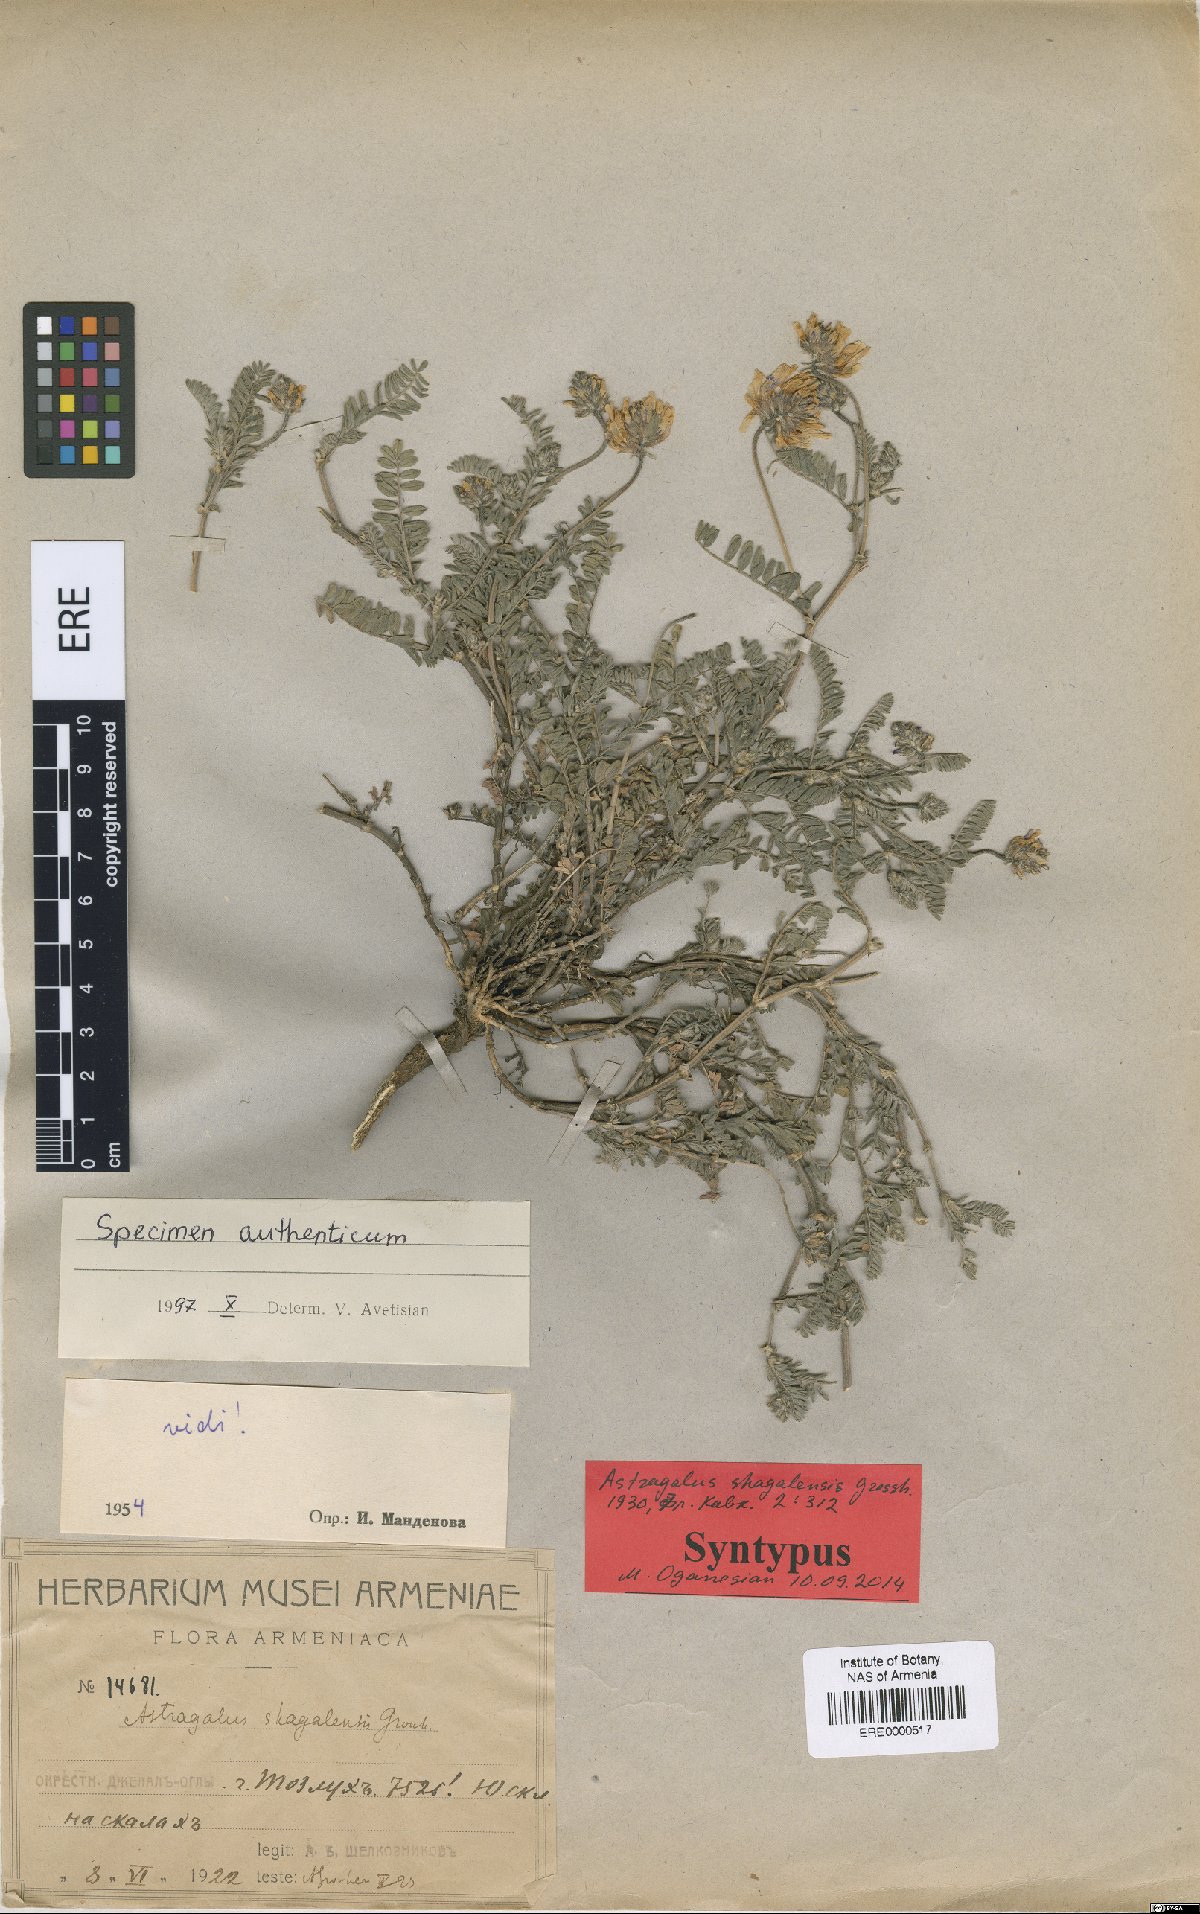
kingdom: Plantae
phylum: Tracheophyta
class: Magnoliopsida
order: Fabales
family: Fabaceae
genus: Astragalus
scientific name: Astragalus shagalensis
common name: Shagalian milk vetch
